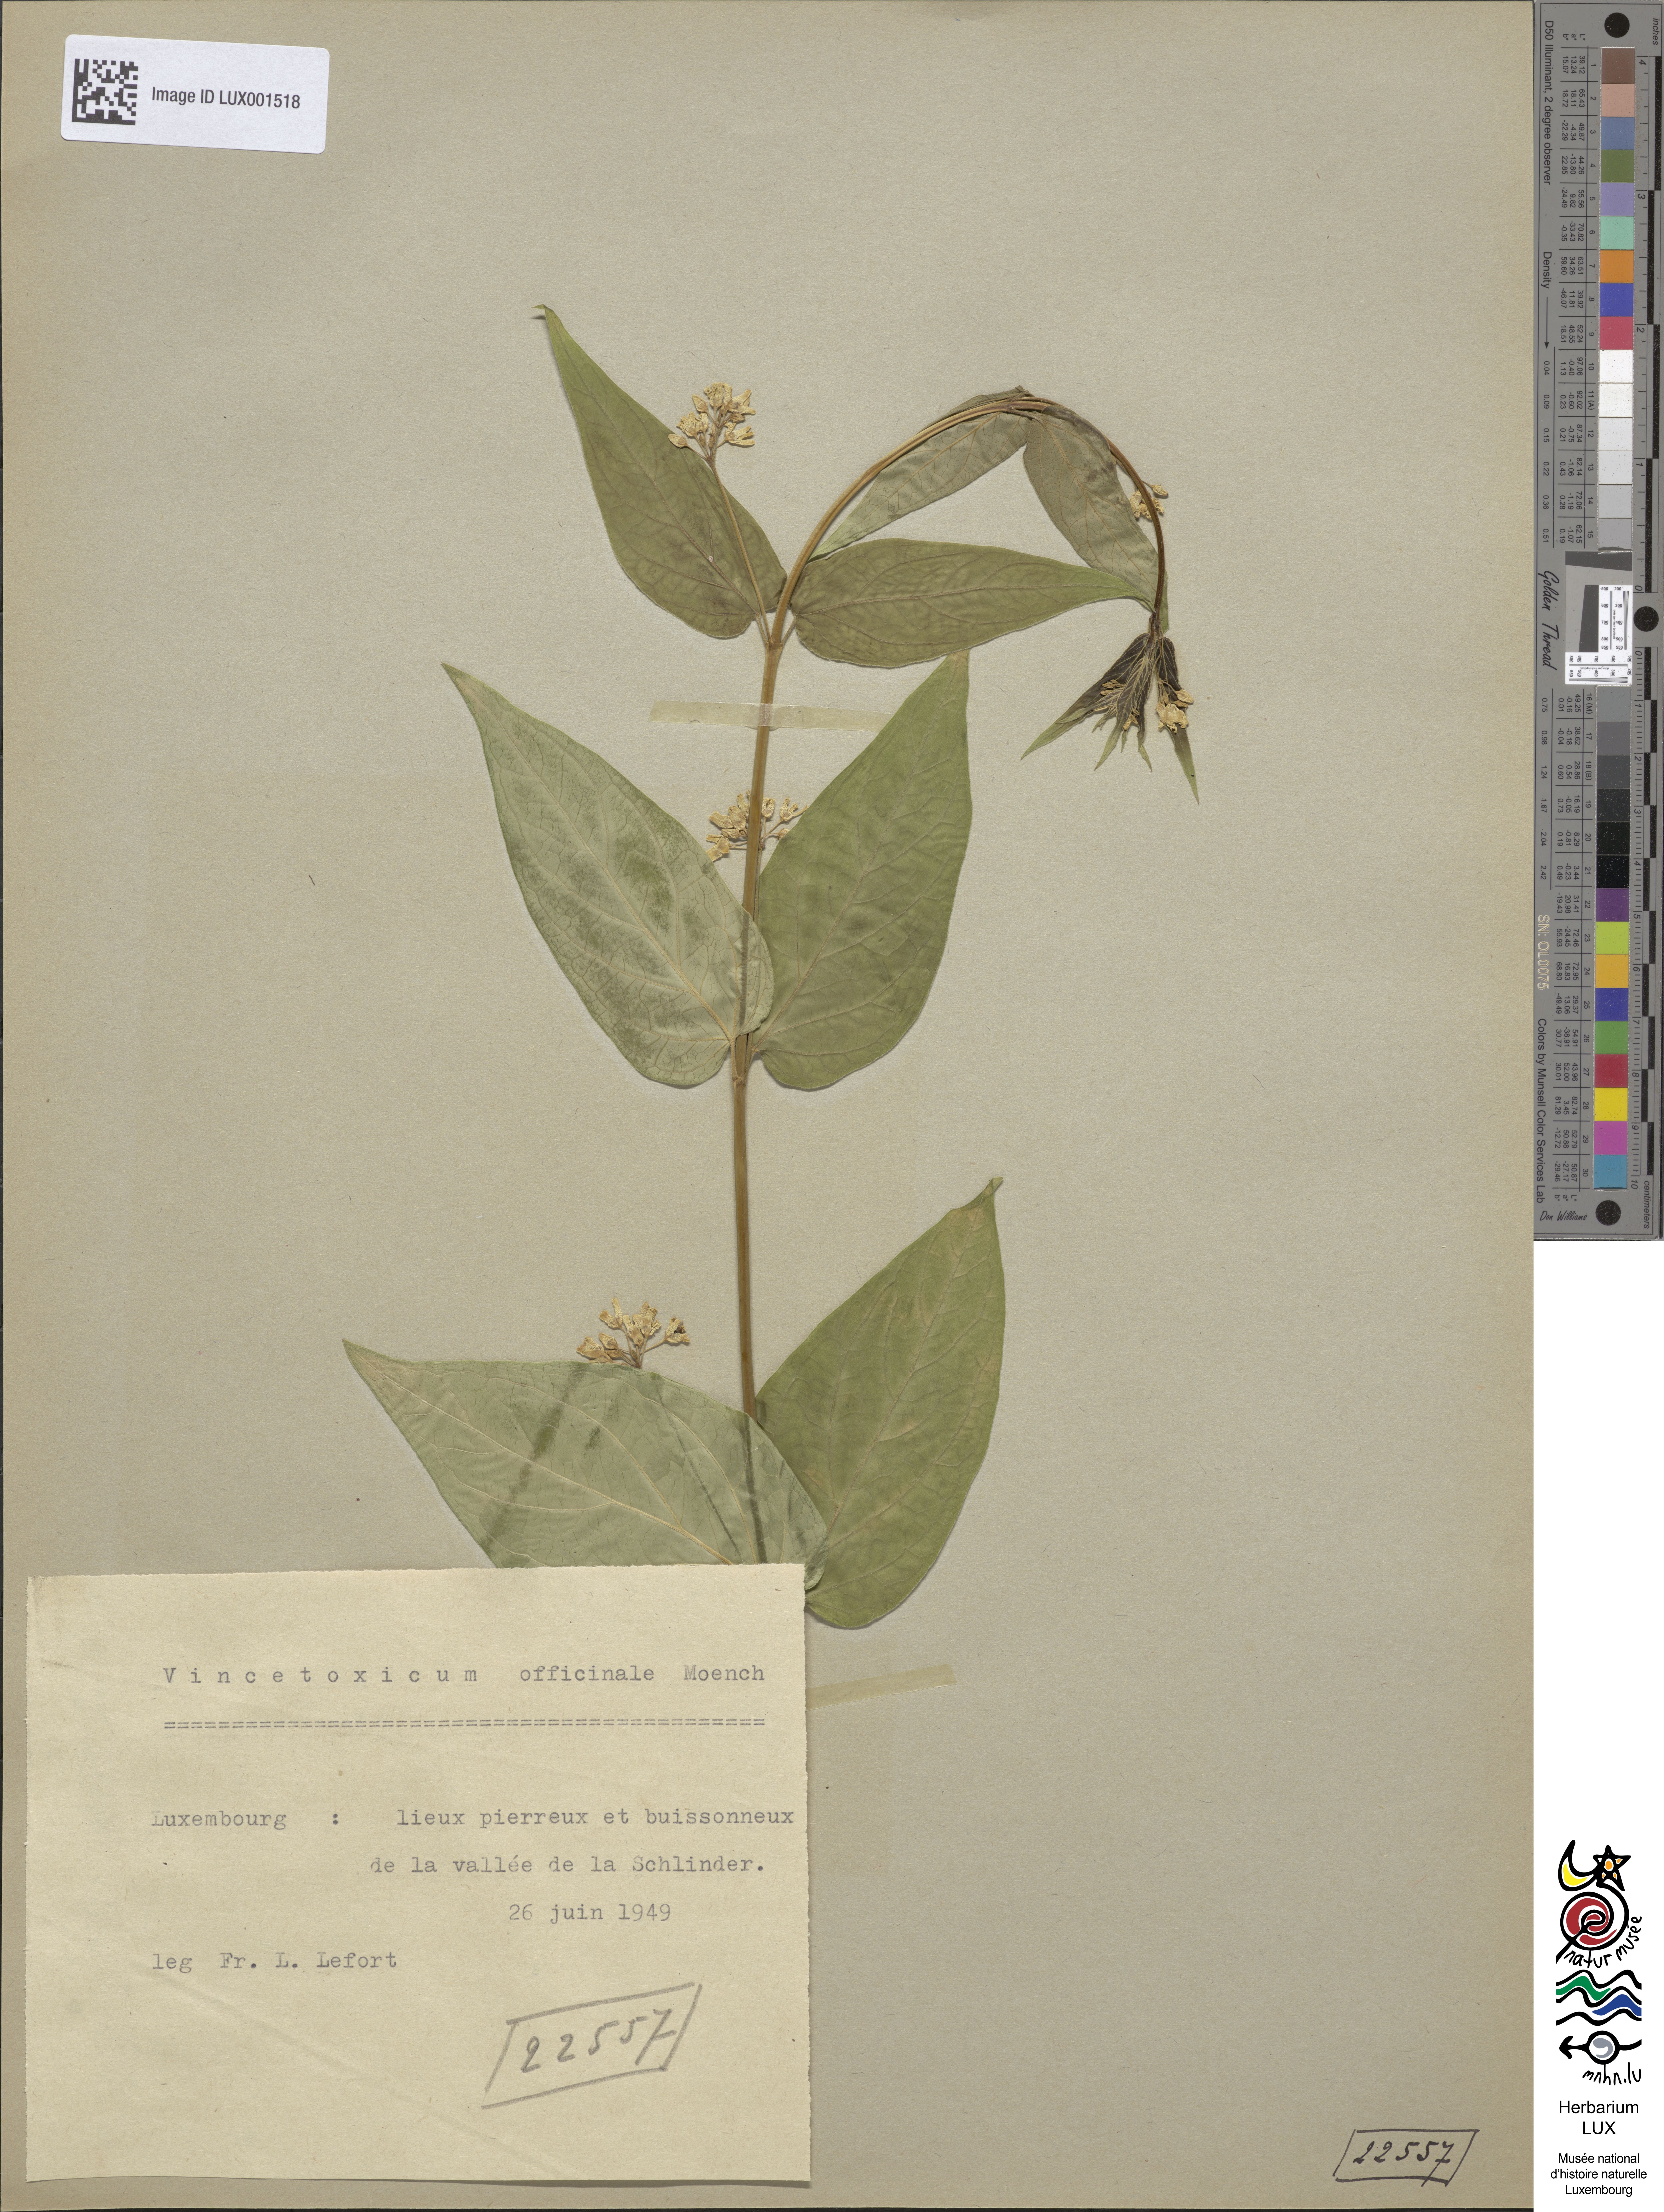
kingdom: Plantae
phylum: Tracheophyta
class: Magnoliopsida
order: Gentianales
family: Apocynaceae
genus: Vincetoxicum
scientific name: Vincetoxicum hirundinaria
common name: White swallowwort
